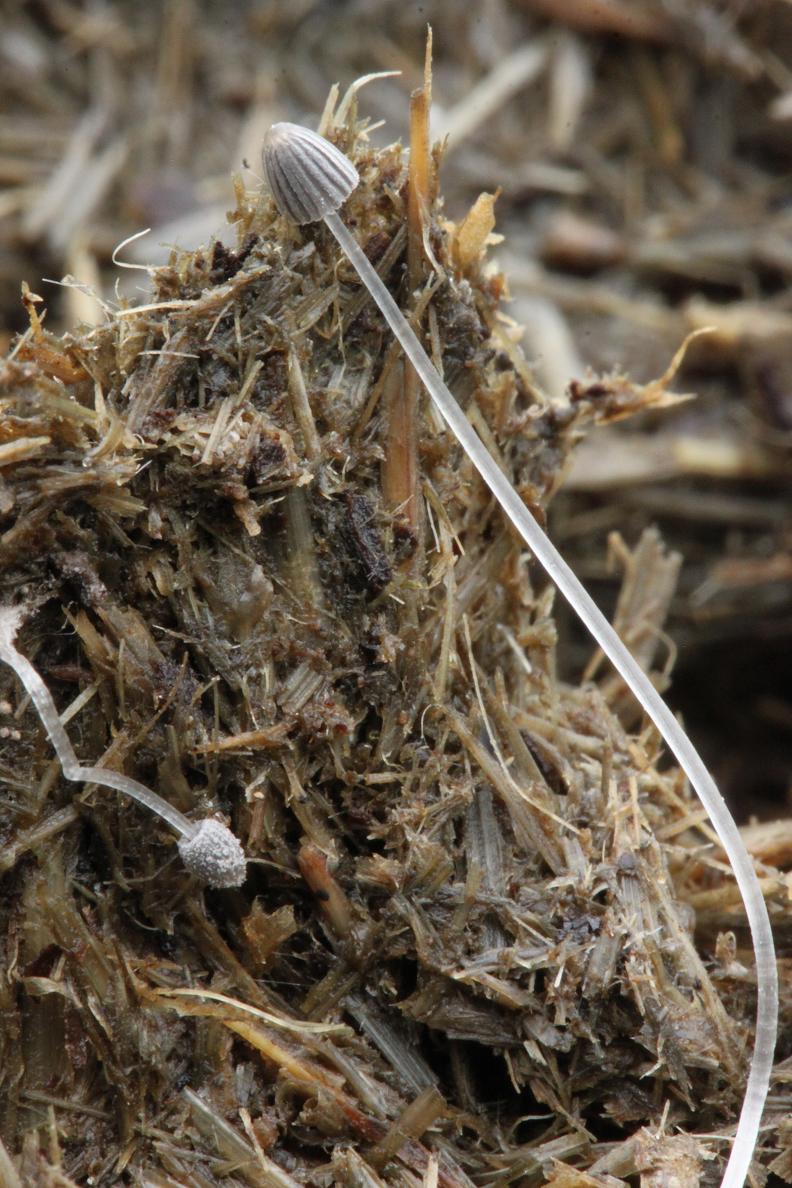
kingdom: Fungi
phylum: Basidiomycota
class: Agaricomycetes
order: Agaricales
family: Psathyrellaceae
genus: Coprinopsis
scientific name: Coprinopsis poliomalla
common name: gråfnugget blækhat
